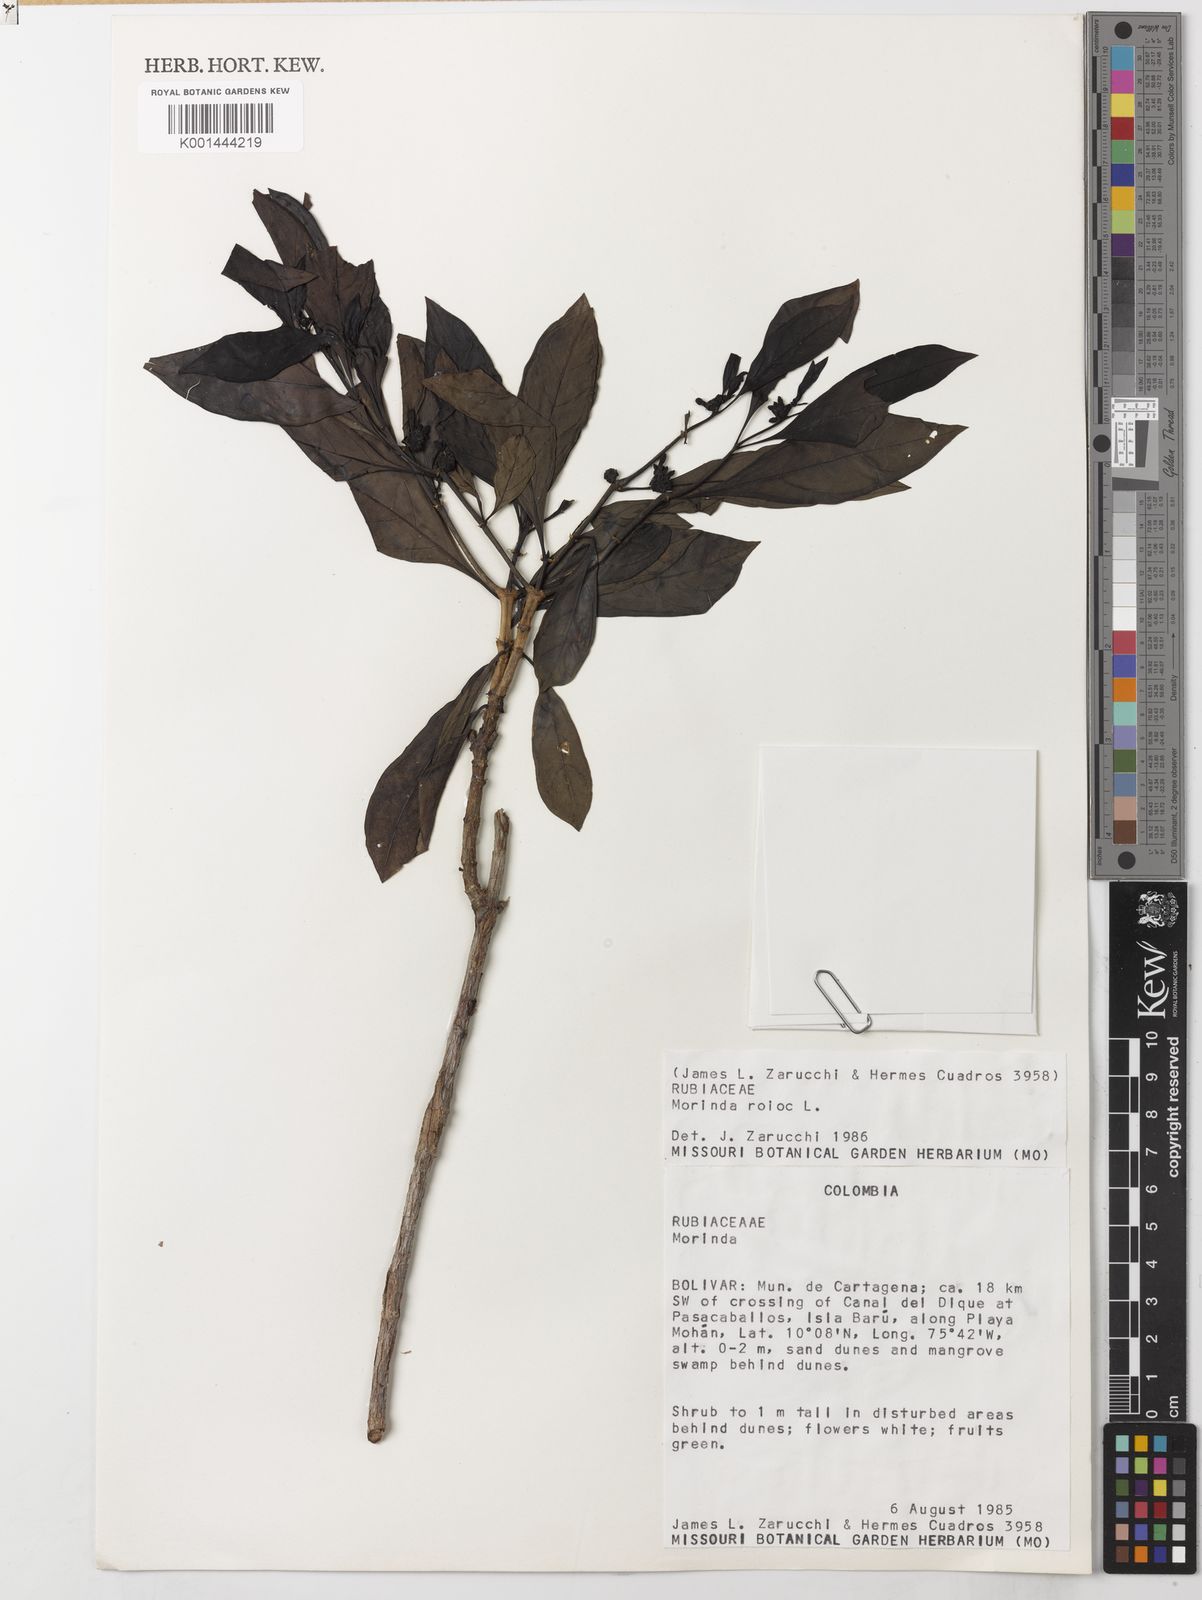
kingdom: Plantae
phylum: Tracheophyta
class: Magnoliopsida
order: Gentianales
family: Rubiaceae
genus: Morinda
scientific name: Morinda royoc
